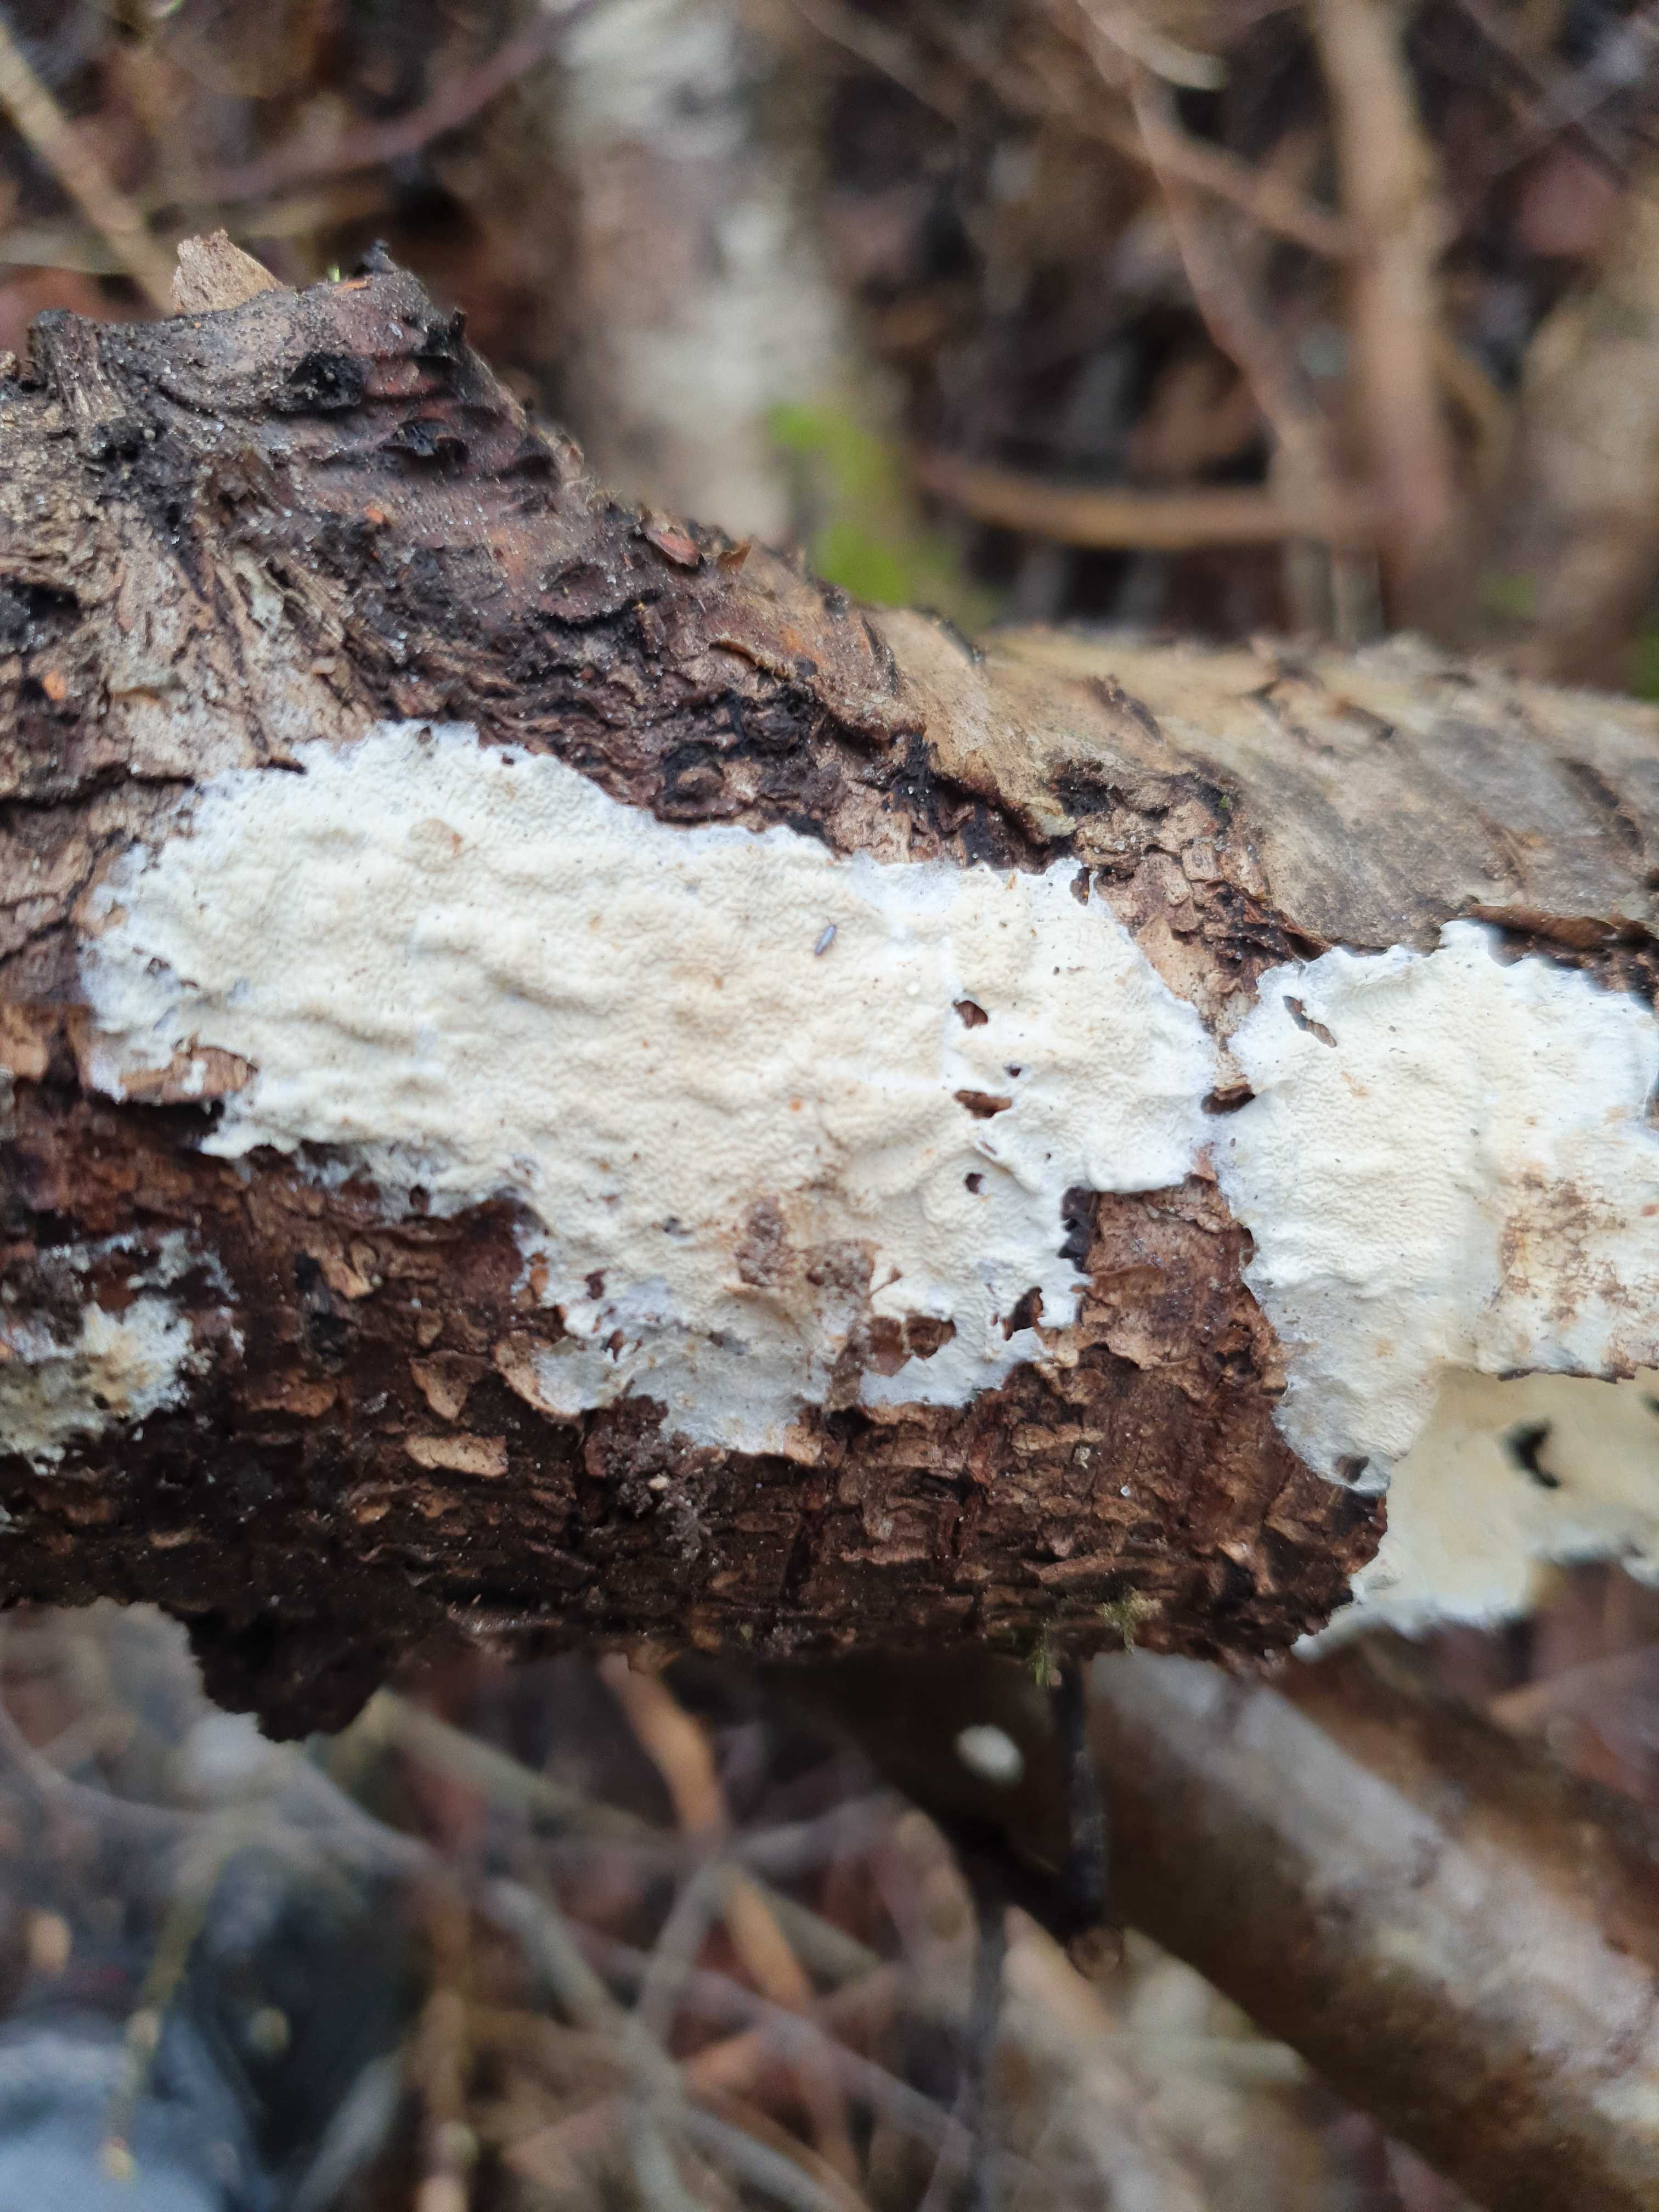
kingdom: Fungi
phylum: Basidiomycota
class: Agaricomycetes
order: Polyporales
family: Irpicaceae
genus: Byssomerulius
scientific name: Byssomerulius corium
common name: læder-åresvamp
